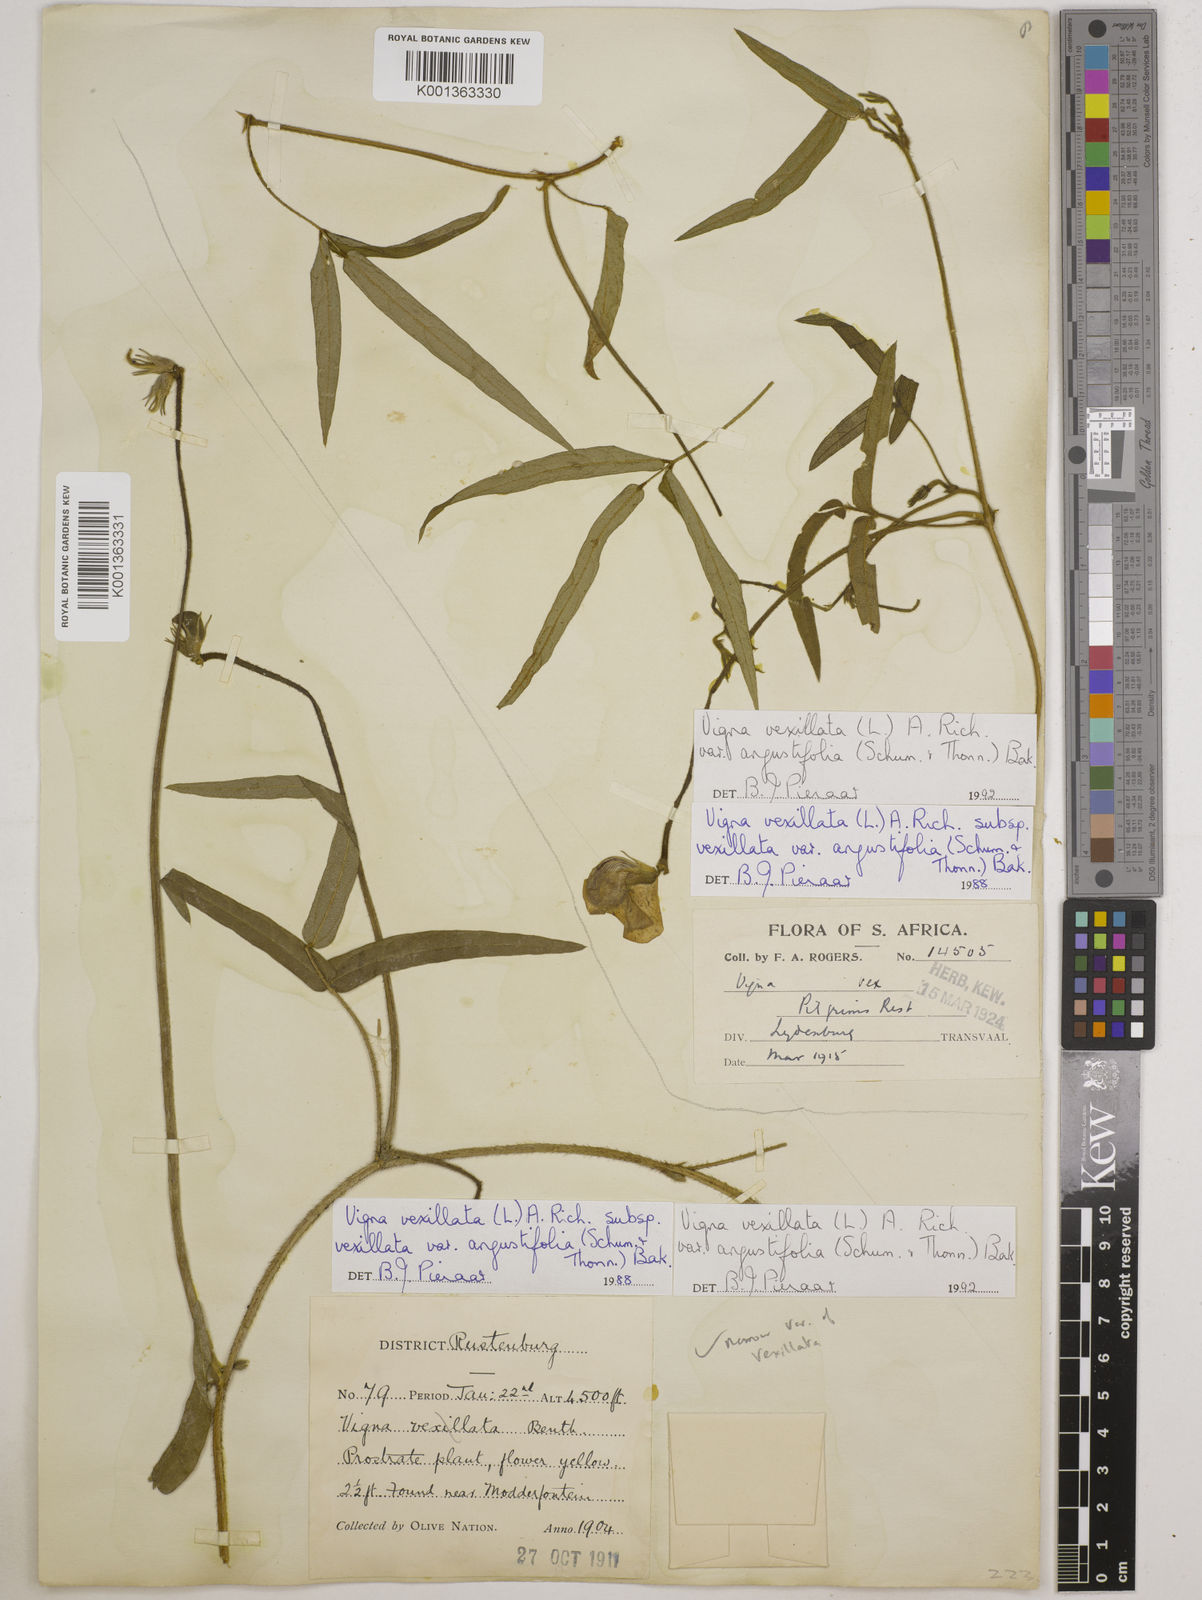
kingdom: Plantae
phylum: Tracheophyta
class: Magnoliopsida
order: Fabales
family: Fabaceae
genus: Vigna
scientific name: Vigna
